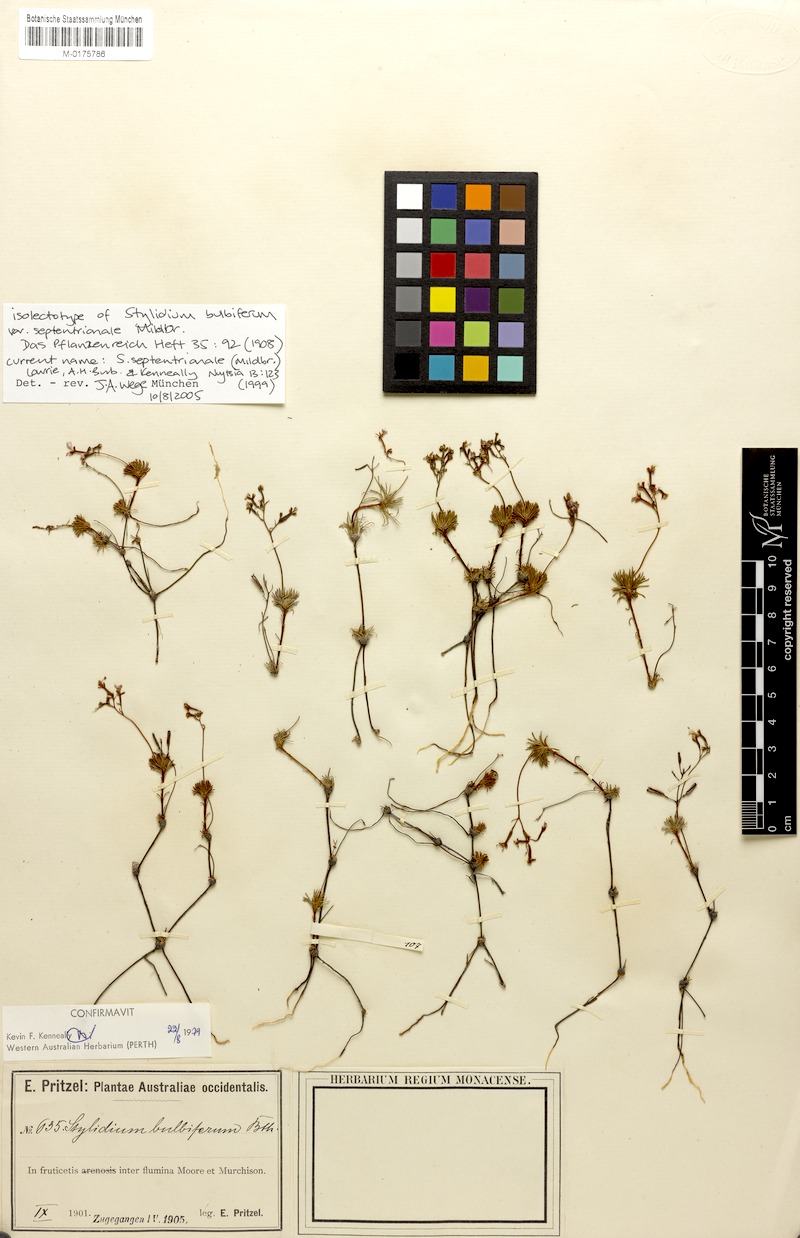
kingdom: Plantae
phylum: Tracheophyta
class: Magnoliopsida
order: Asterales
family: Stylidiaceae
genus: Stylidium
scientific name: Stylidium septentrionale
